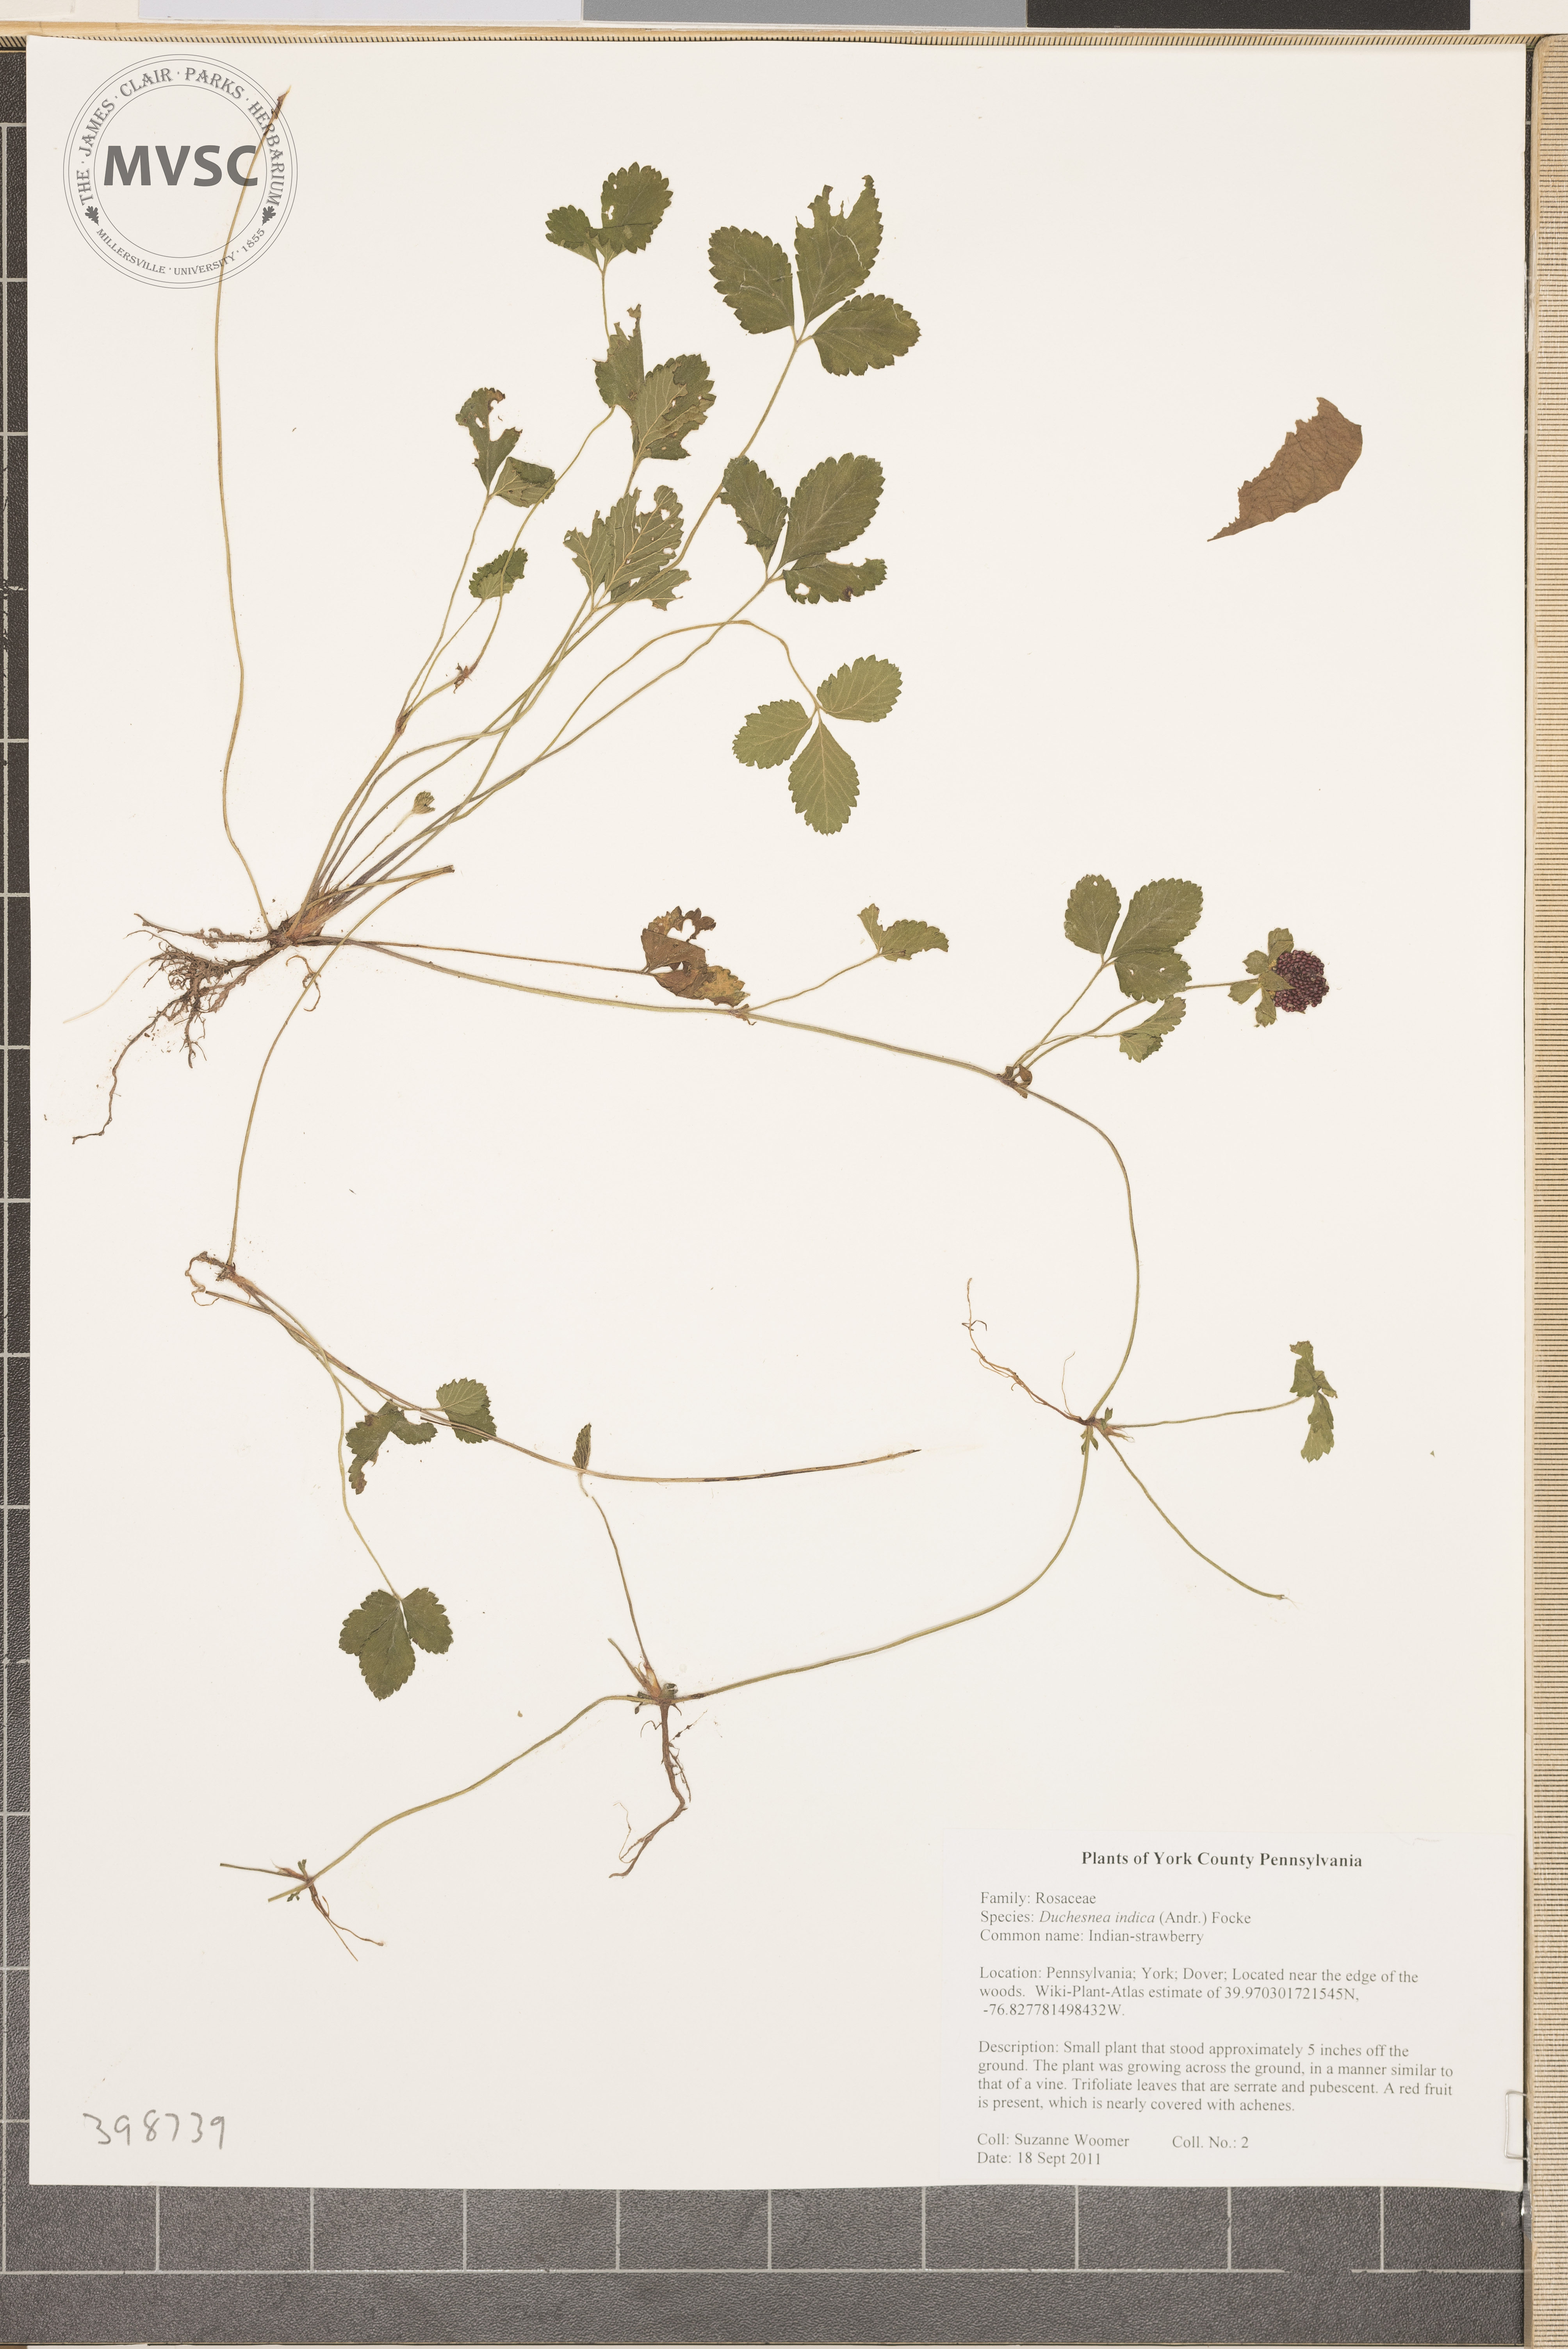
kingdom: Plantae
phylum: Tracheophyta
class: Magnoliopsida
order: Rosales
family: Rosaceae
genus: Potentilla
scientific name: Potentilla indica
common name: Indian strawberry
